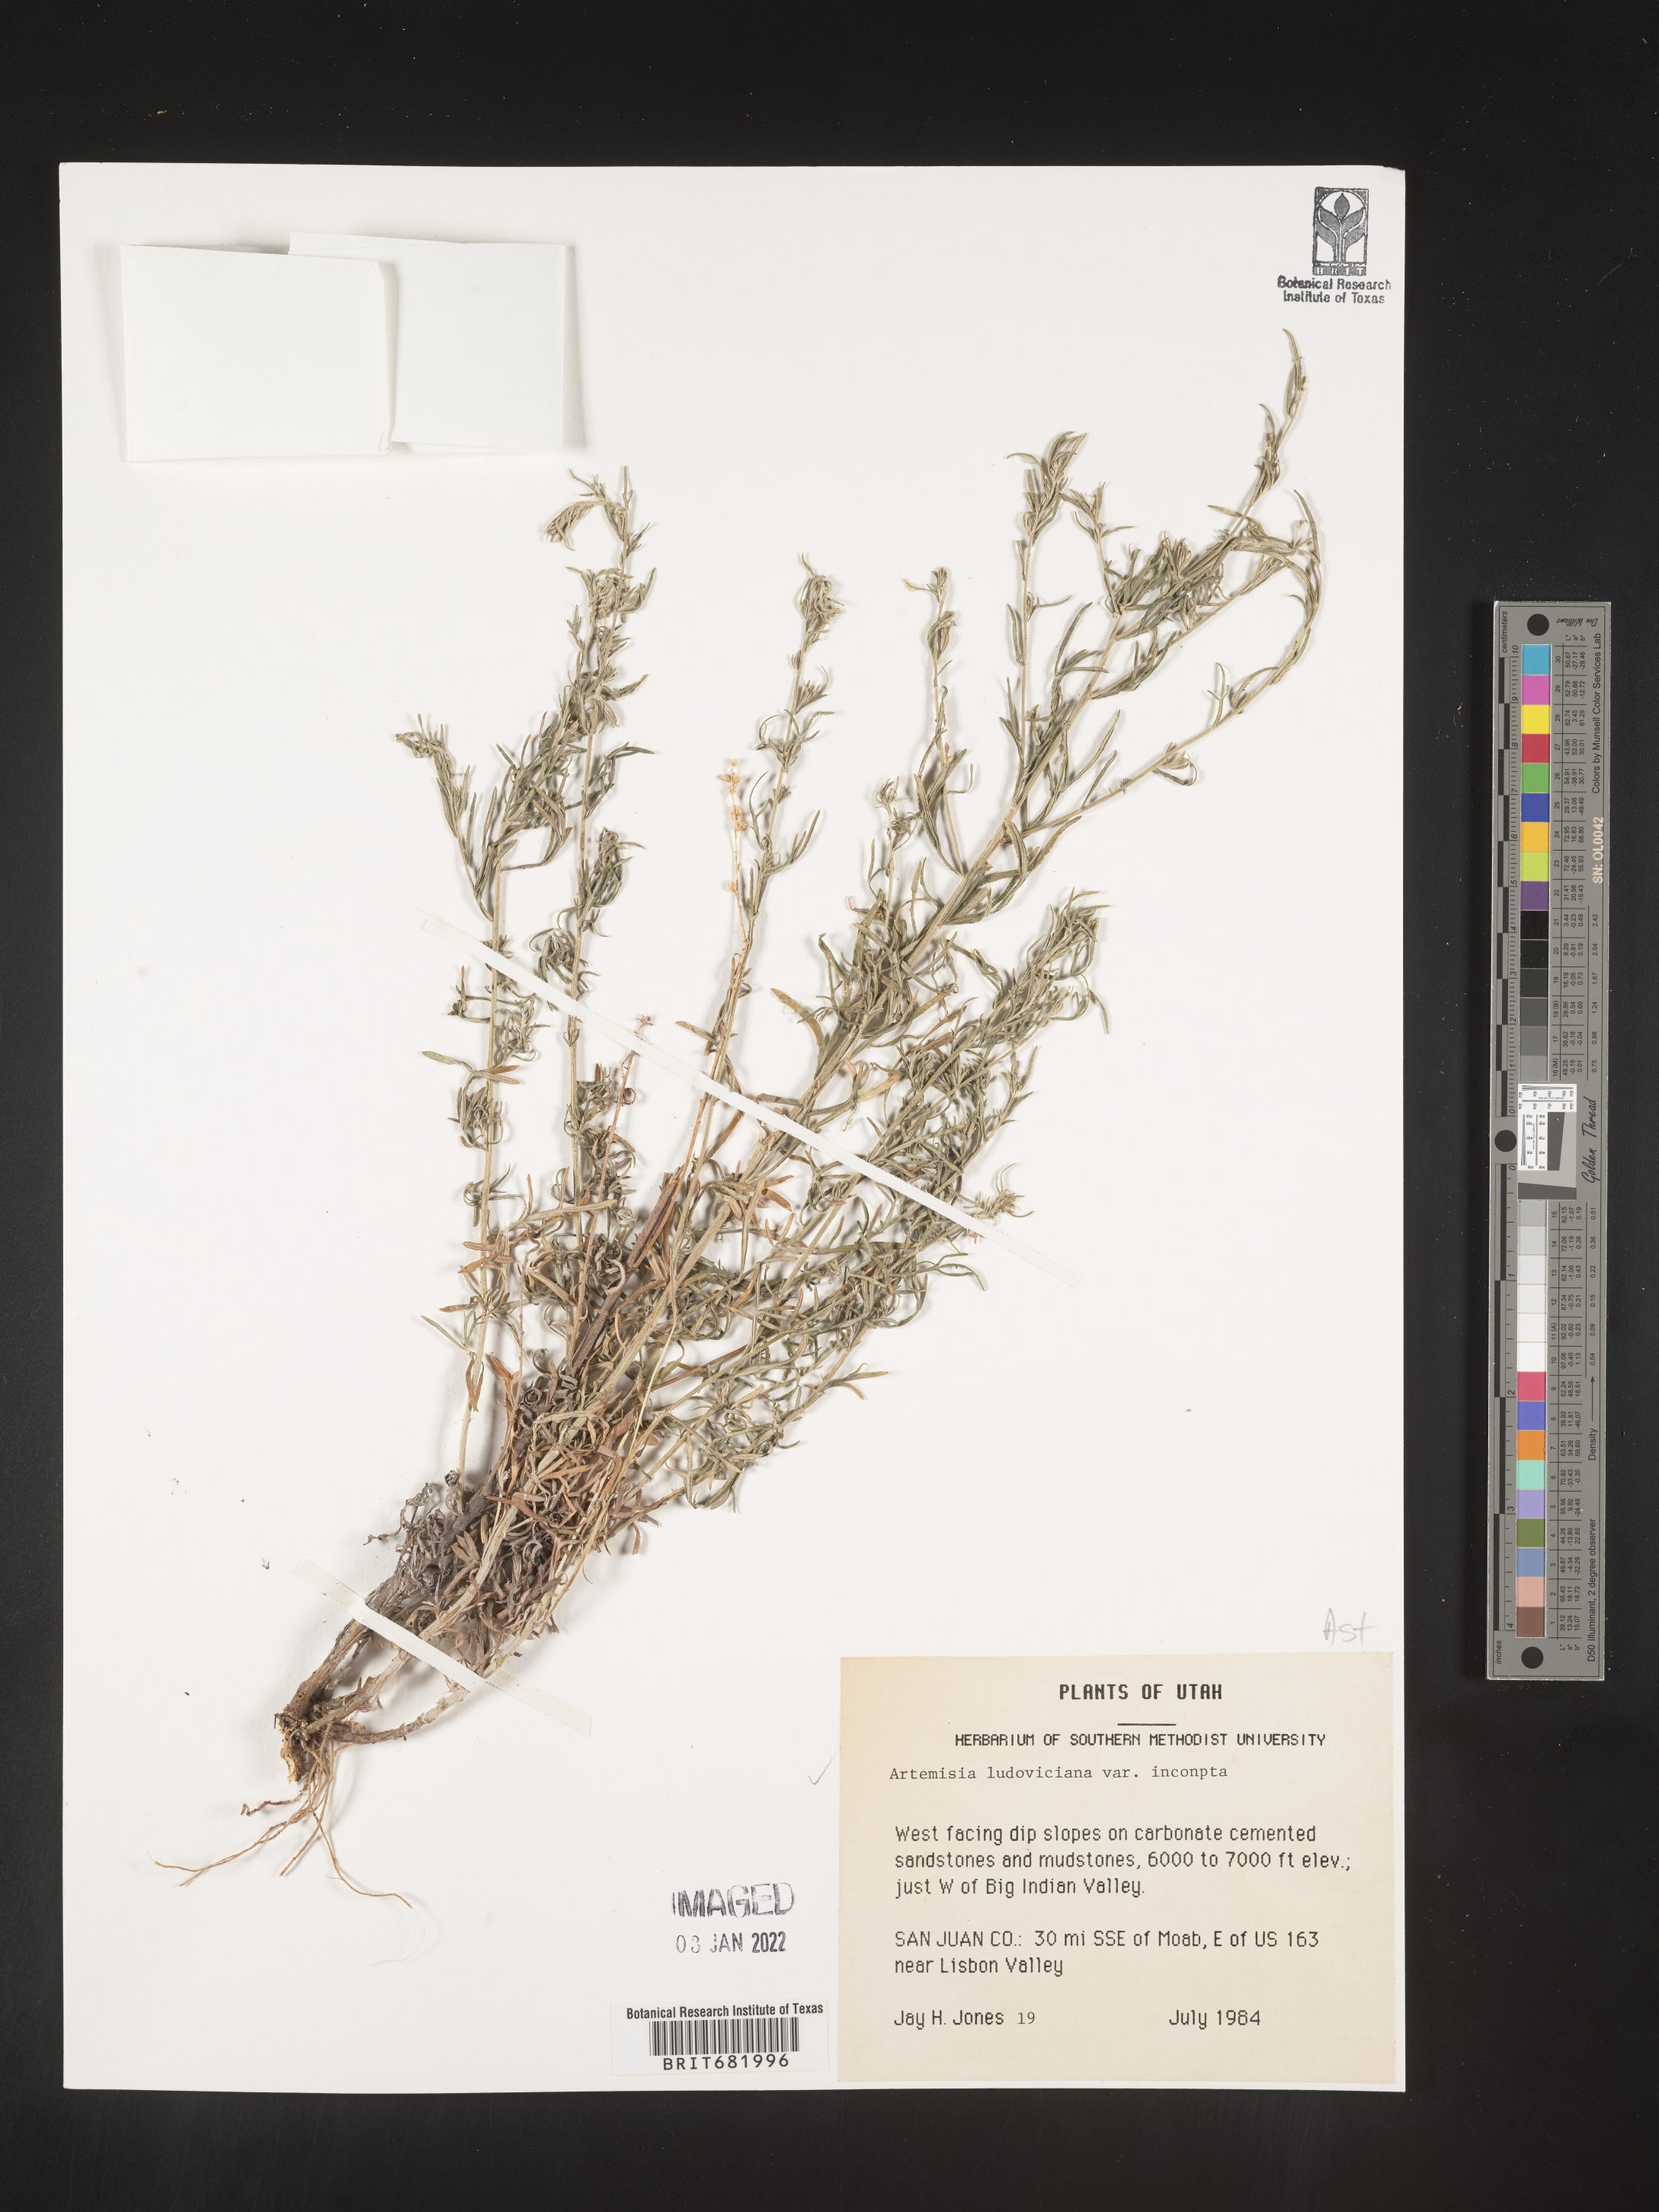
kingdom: Plantae
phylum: Tracheophyta
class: Magnoliopsida
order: Asterales
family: Asteraceae
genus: Artemisia
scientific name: Artemisia ludoviciana
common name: Western mugwort
